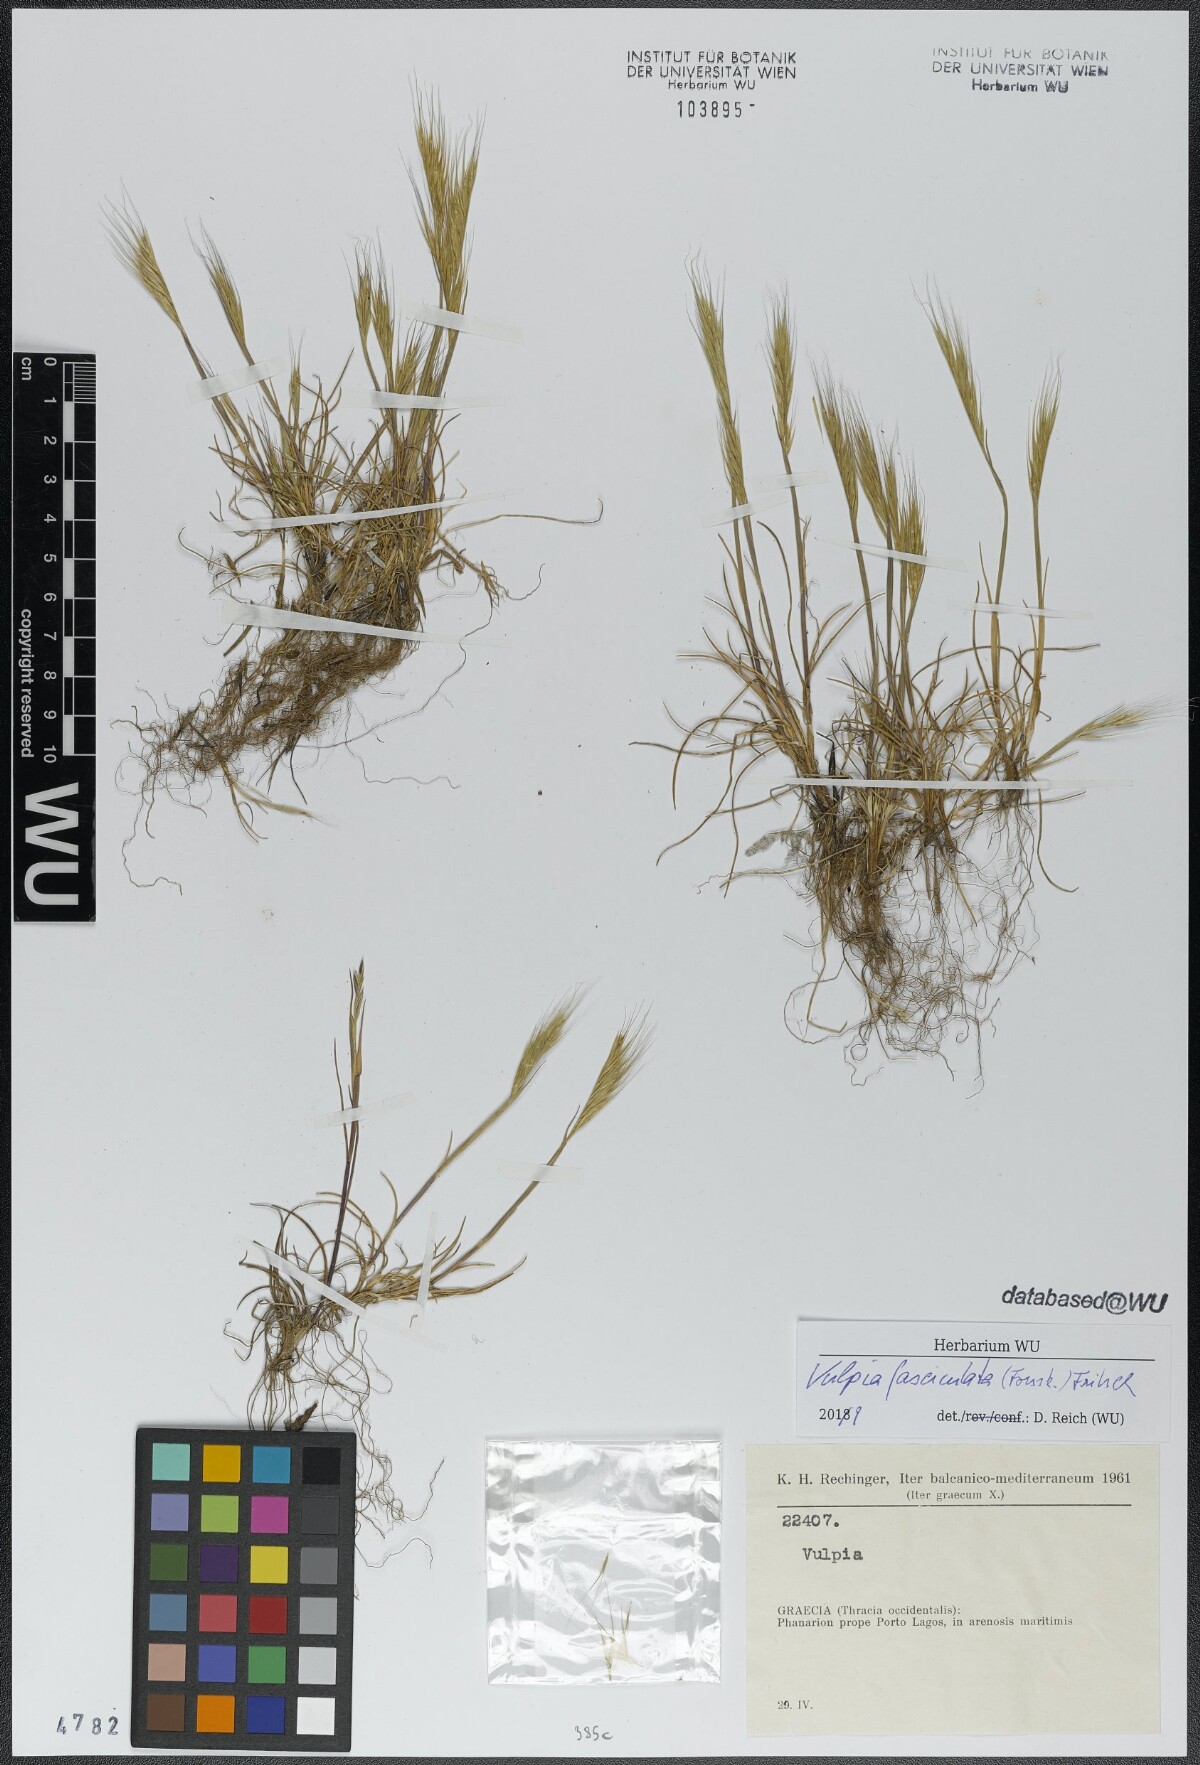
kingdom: Plantae
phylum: Tracheophyta
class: Liliopsida
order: Poales
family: Poaceae
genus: Festuca
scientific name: Festuca fasciculata
